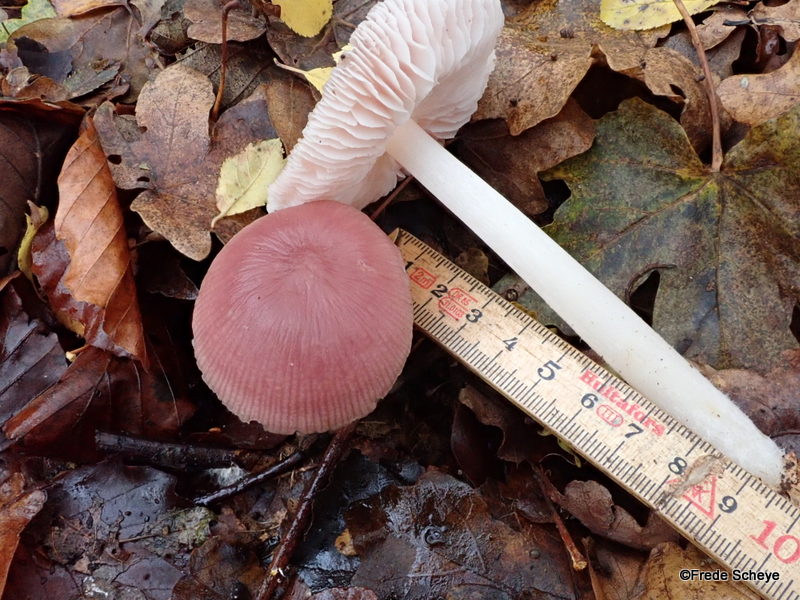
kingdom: Fungi
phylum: Basidiomycota
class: Agaricomycetes
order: Agaricales
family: Mycenaceae
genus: Mycena
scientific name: Mycena rosea
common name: rosa huesvamp
